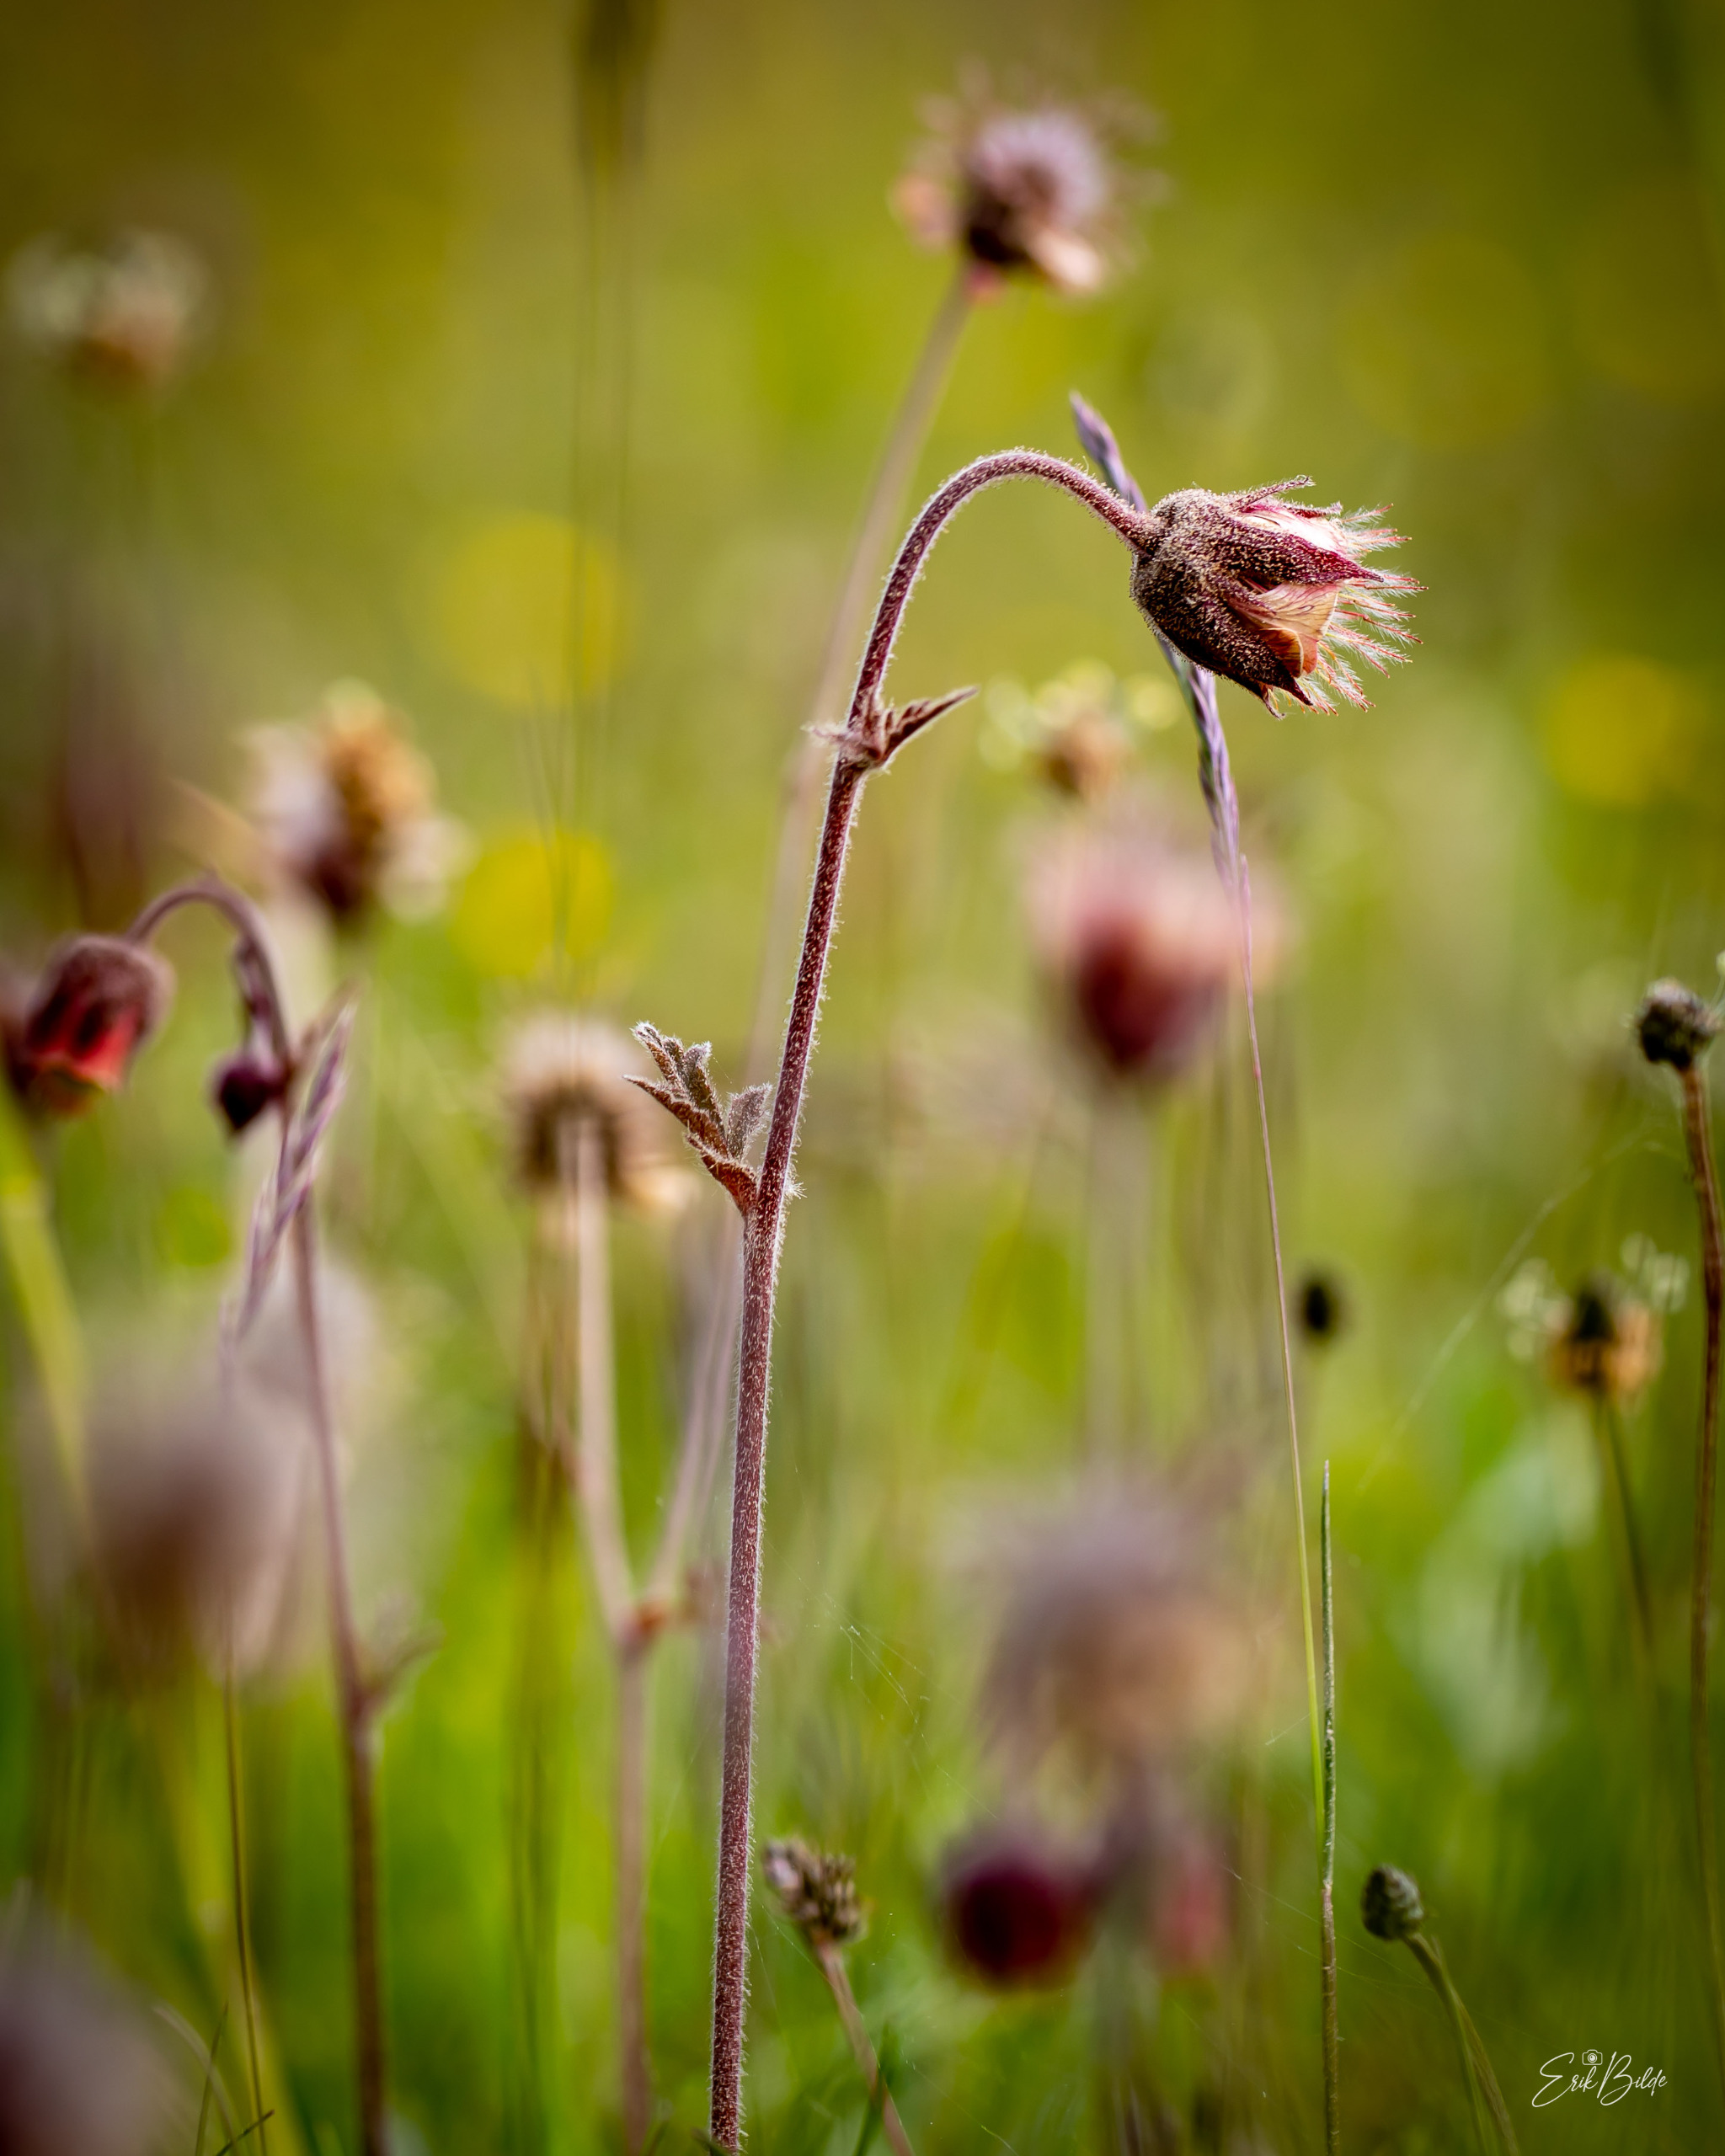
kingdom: Plantae
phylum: Tracheophyta
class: Magnoliopsida
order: Rosales
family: Rosaceae
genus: Geum
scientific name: Geum rivale
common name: Eng-nellikerod
